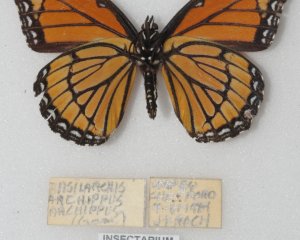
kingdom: Animalia
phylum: Arthropoda
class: Insecta
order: Lepidoptera
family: Nymphalidae
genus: Limenitis
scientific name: Limenitis archippus
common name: Viceroy
